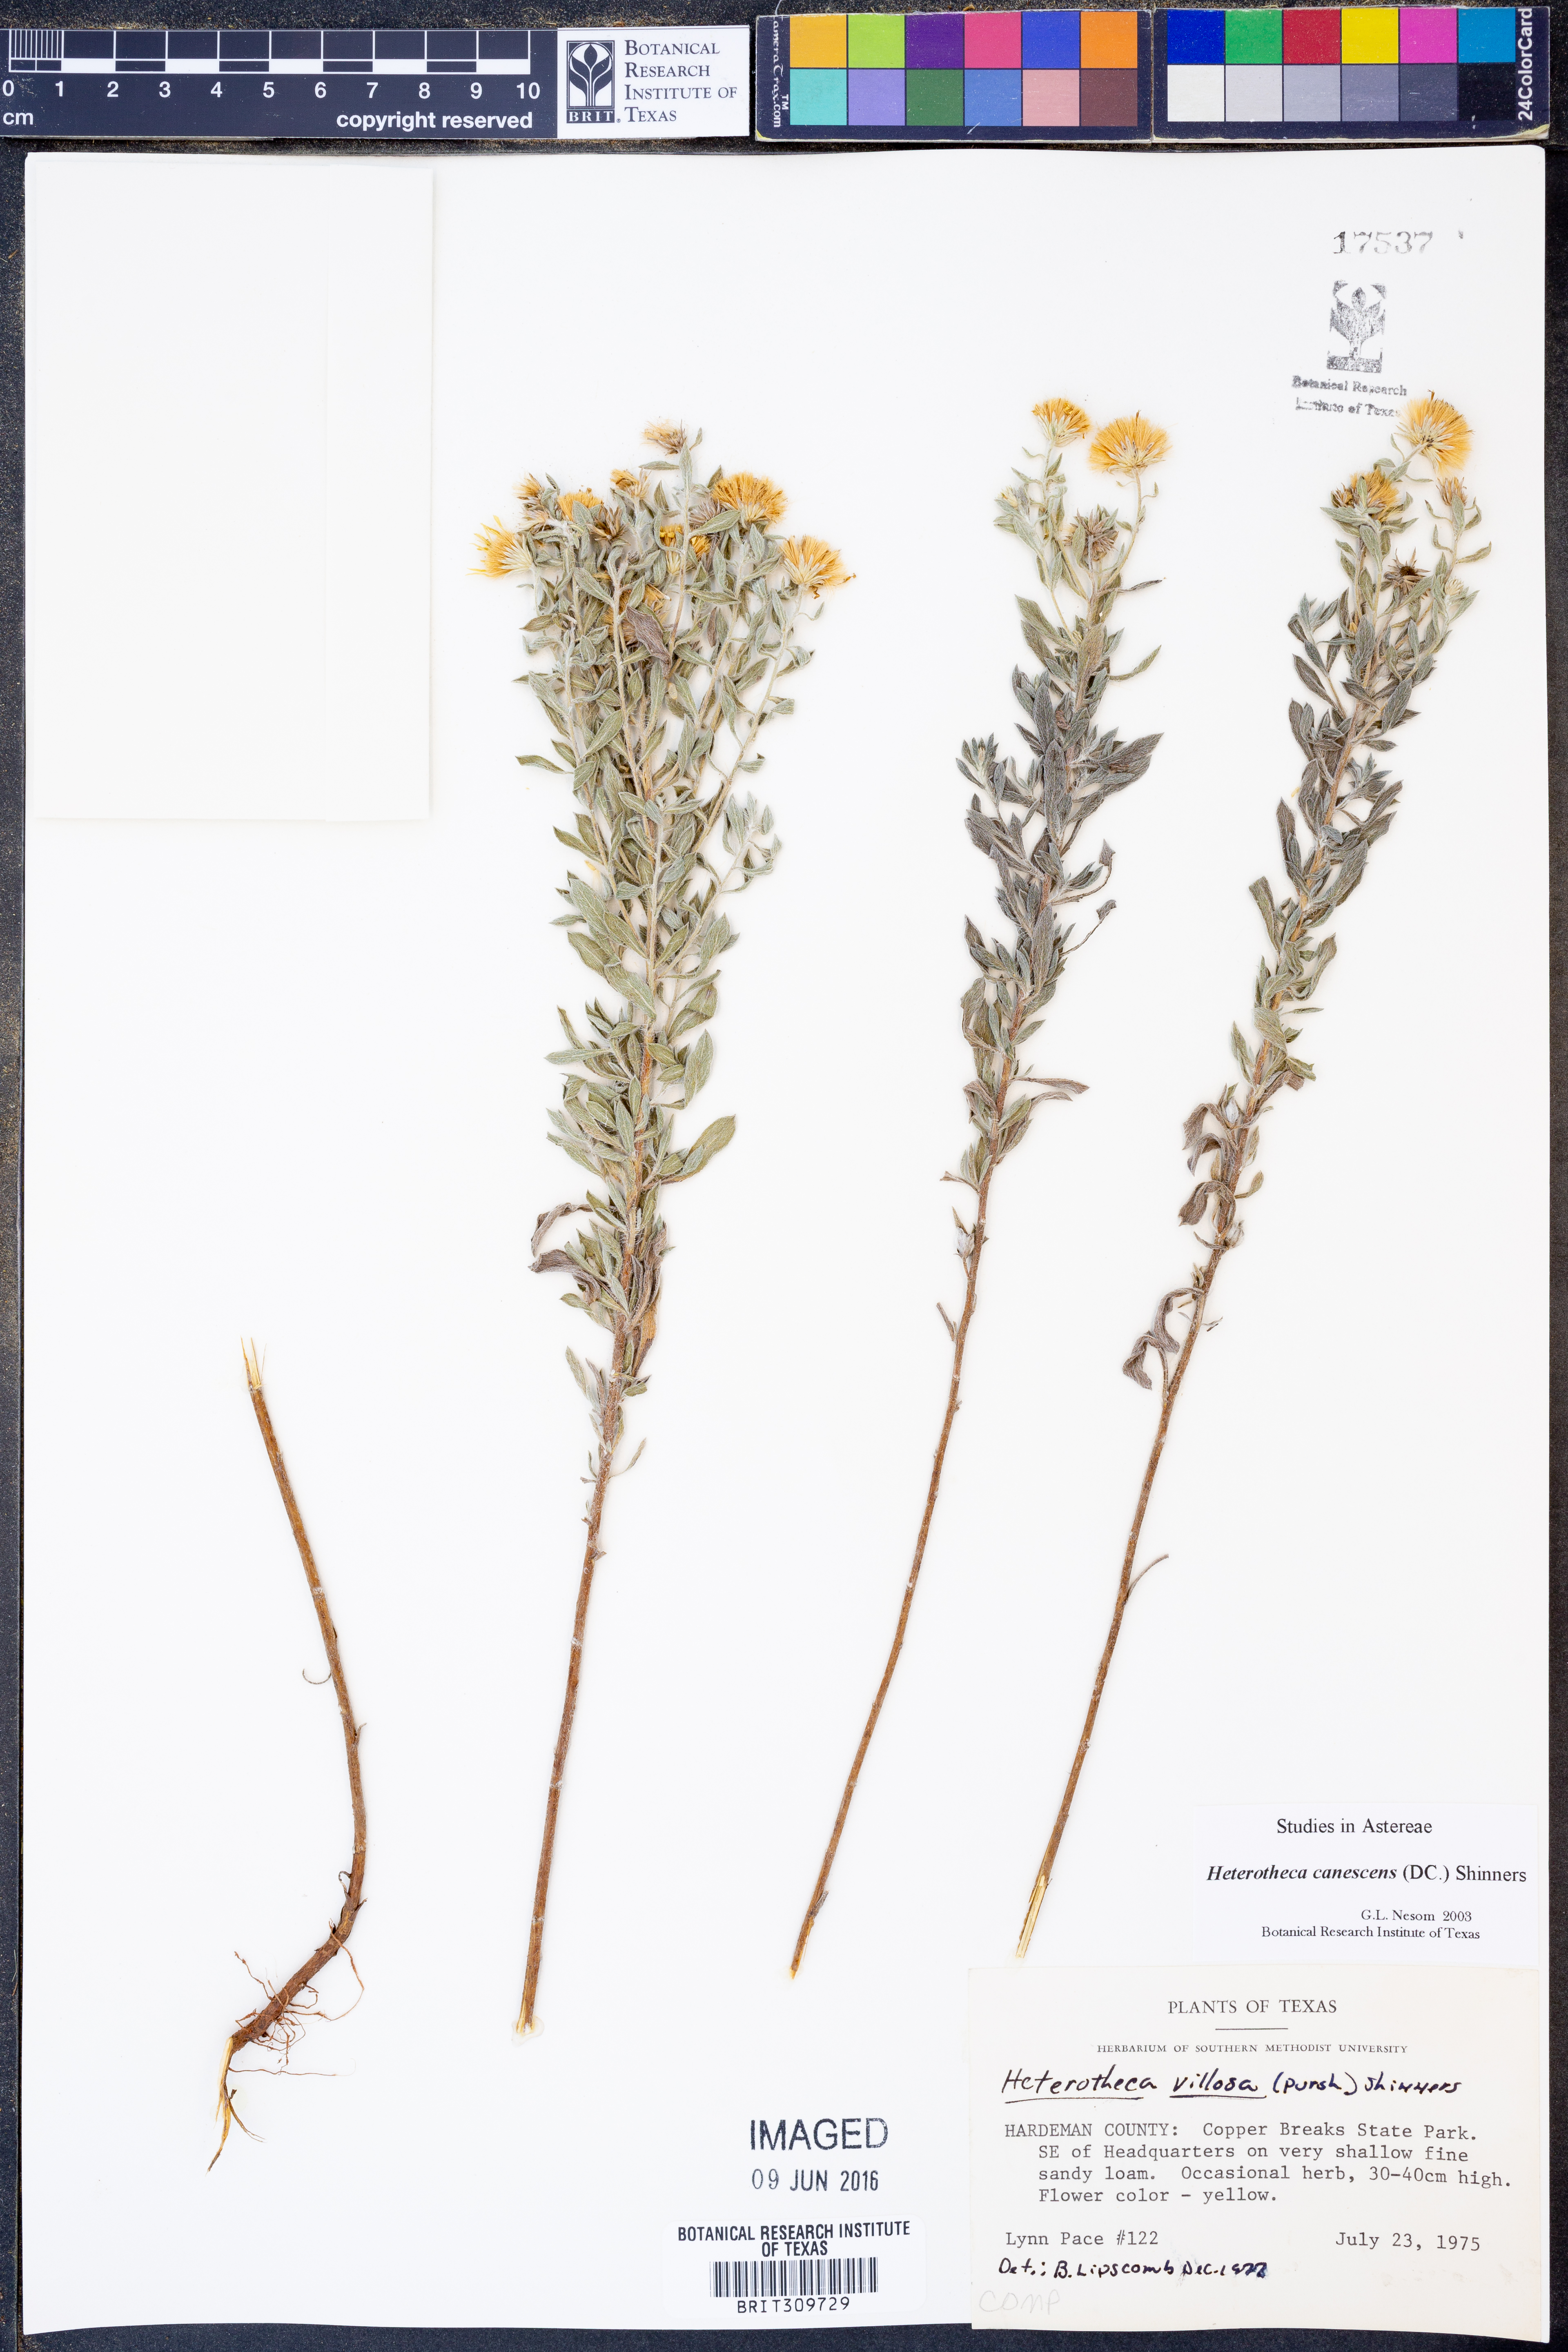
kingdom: Plantae
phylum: Tracheophyta
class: Magnoliopsida
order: Asterales
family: Asteraceae
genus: Heterotheca
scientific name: Heterotheca canescens
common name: Hoary golden-aster
